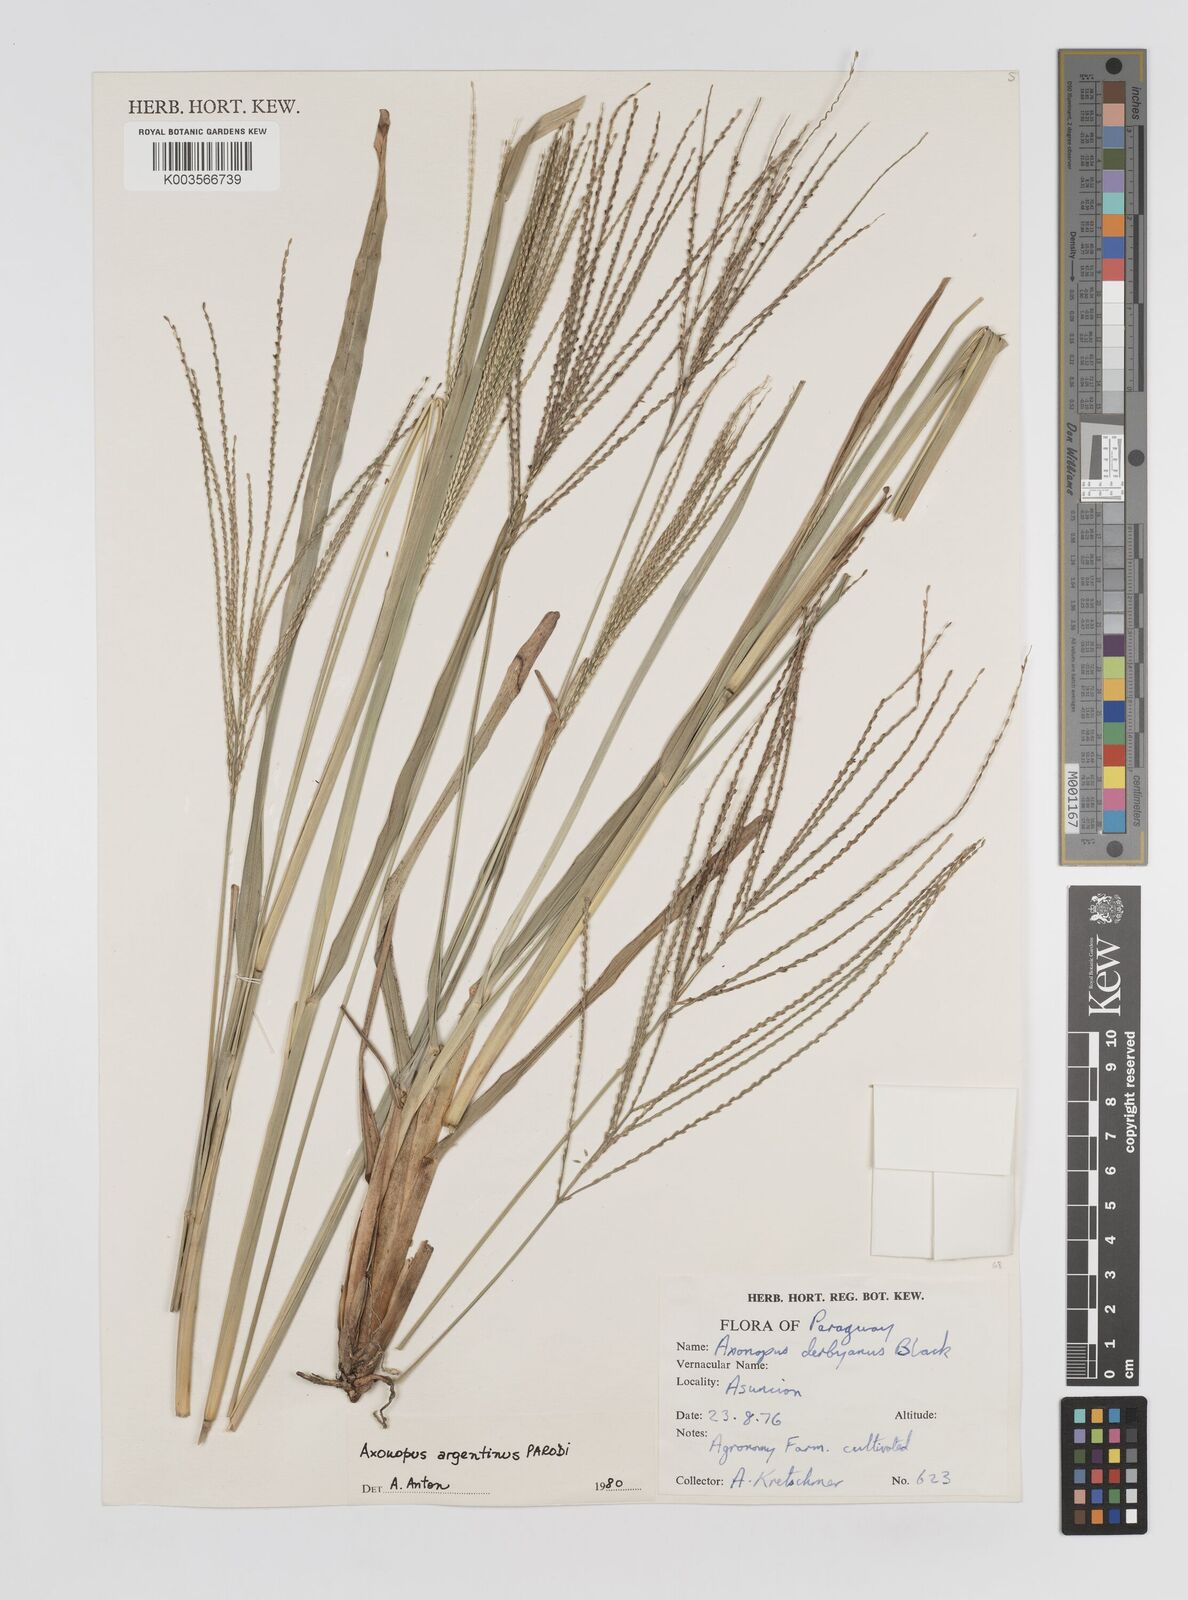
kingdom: Plantae
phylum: Tracheophyta
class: Liliopsida
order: Poales
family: Poaceae
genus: Axonopus
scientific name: Axonopus argentinus
